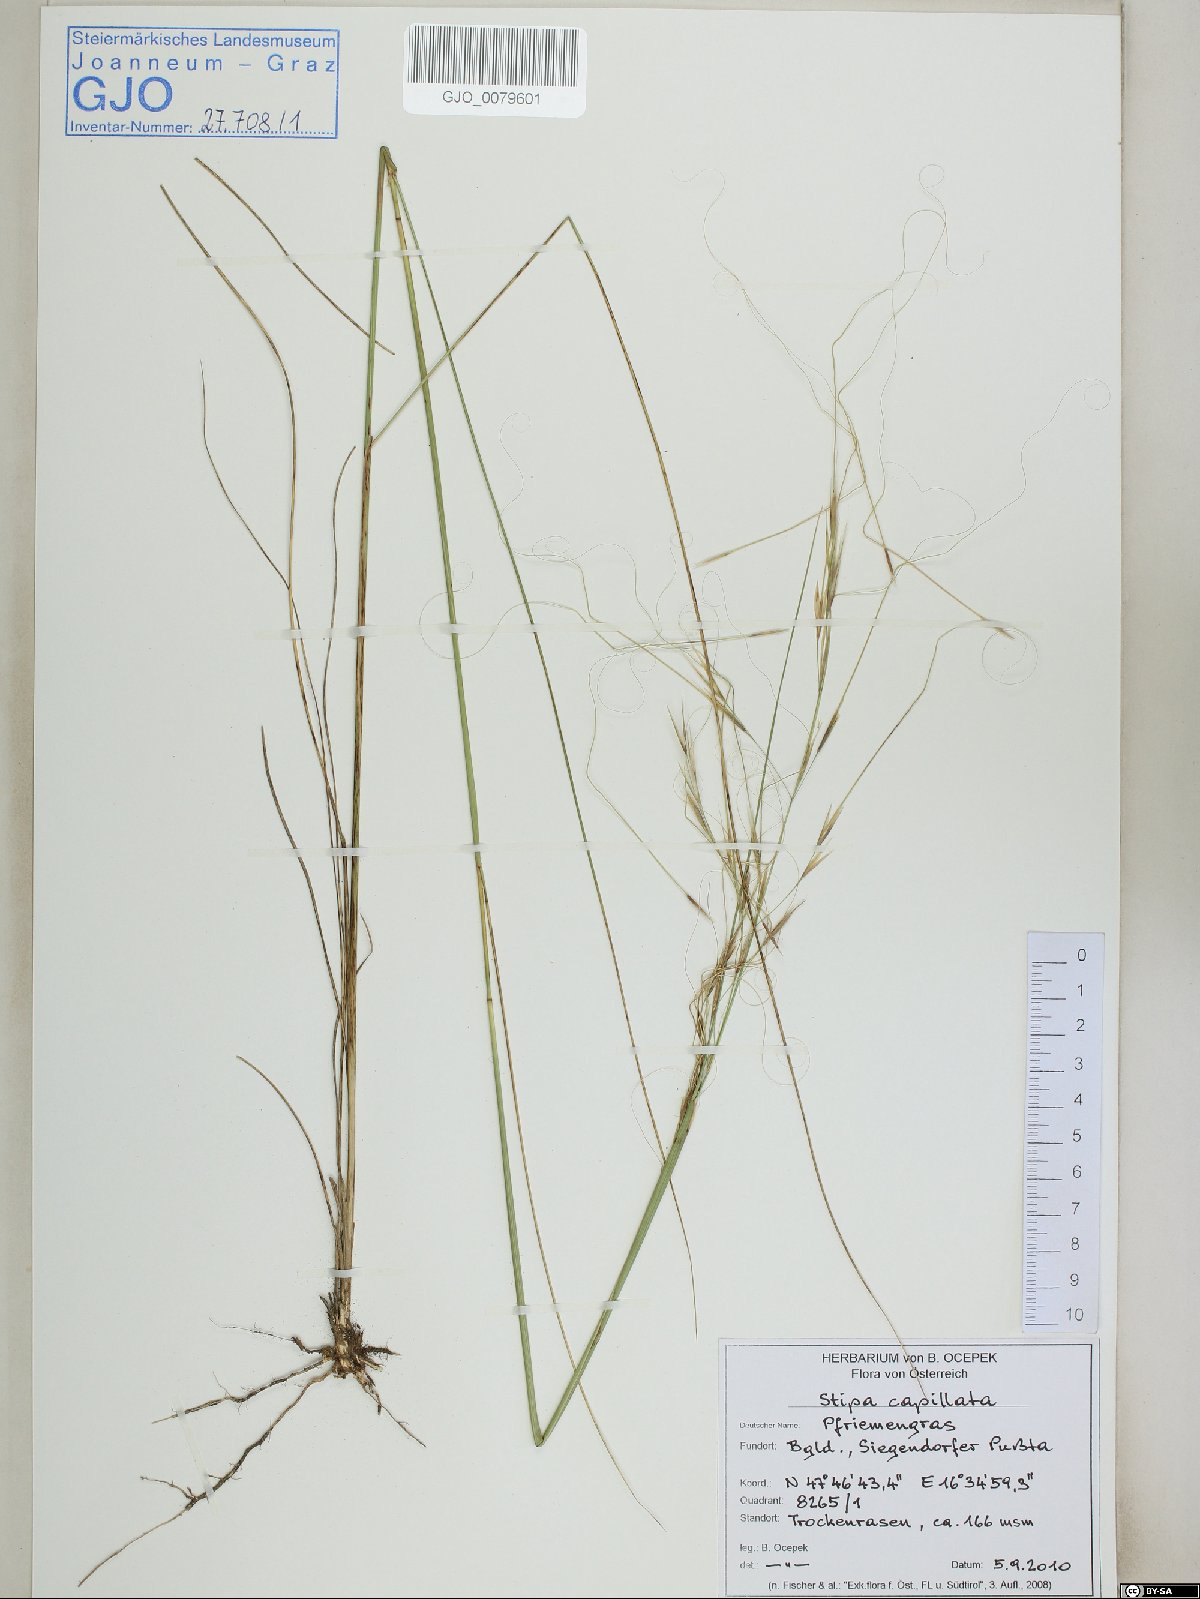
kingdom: Plantae
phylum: Tracheophyta
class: Liliopsida
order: Poales
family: Poaceae
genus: Stipa
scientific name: Stipa capillata
